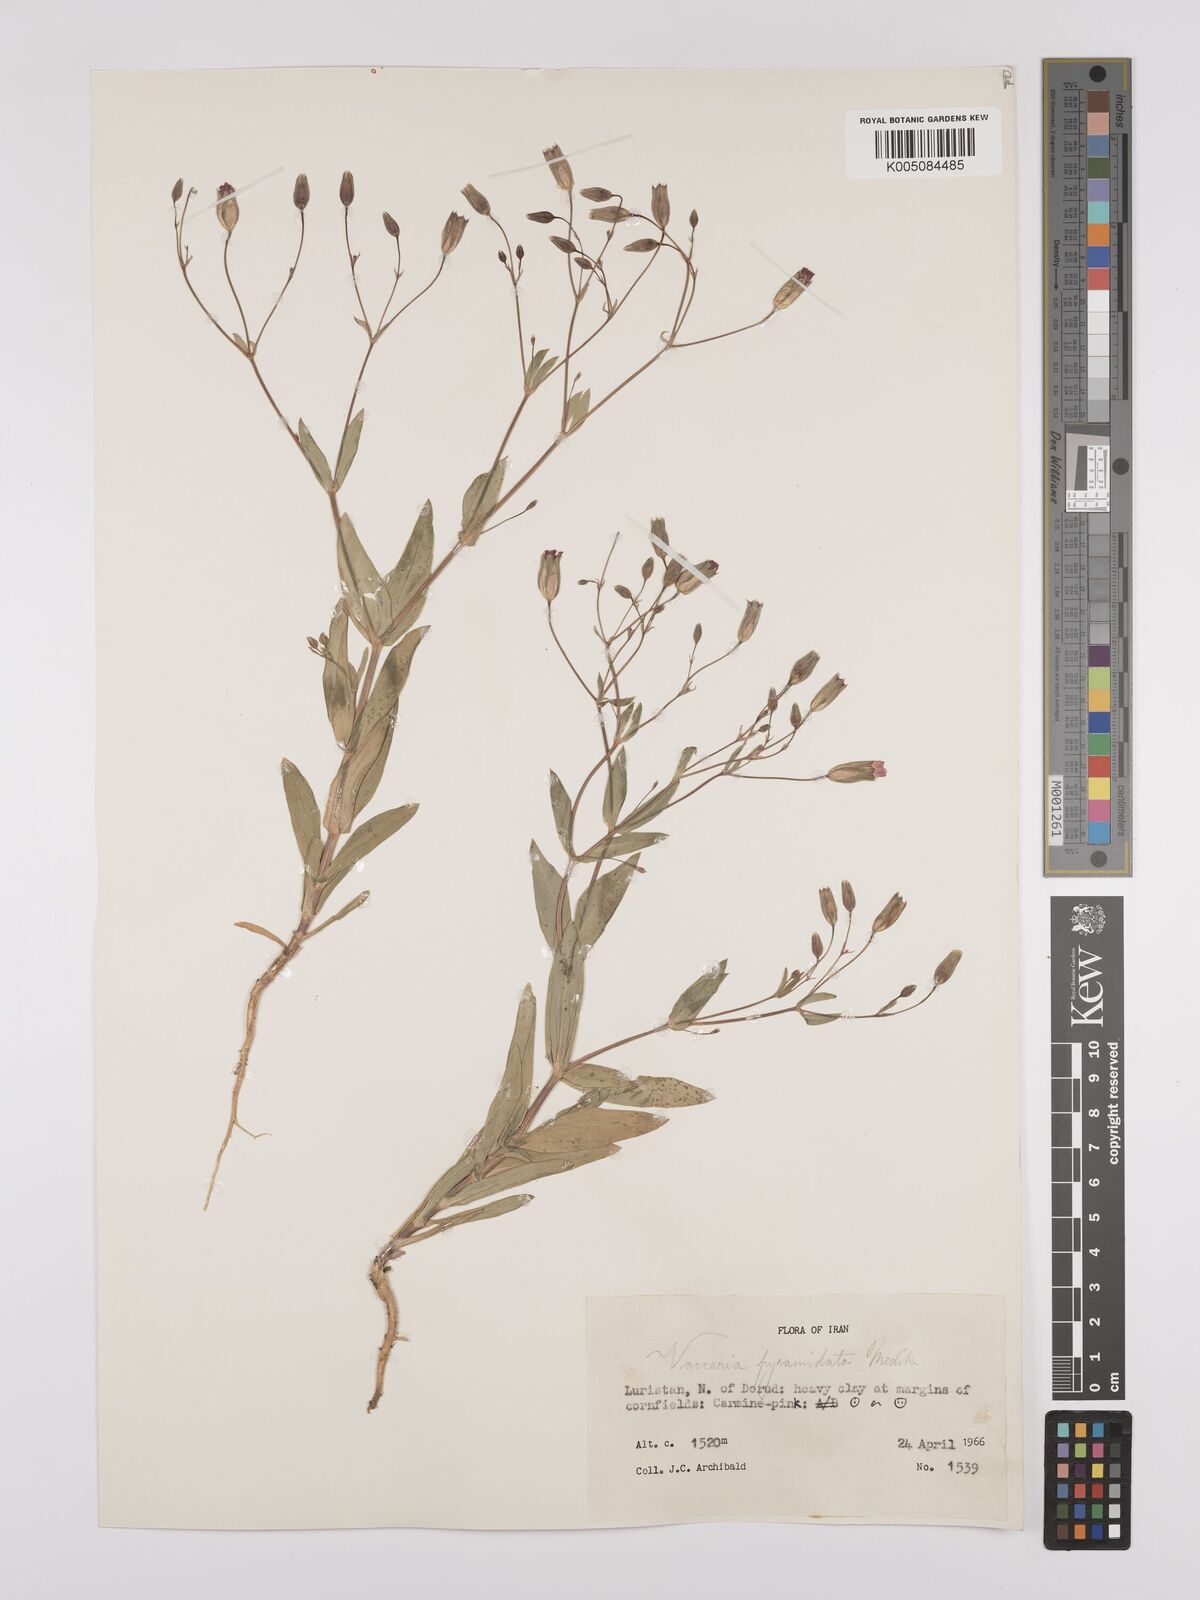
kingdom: Plantae
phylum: Tracheophyta
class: Magnoliopsida
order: Caryophyllales
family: Caryophyllaceae
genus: Gypsophila
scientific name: Gypsophila vaccaria
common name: Cow soapwort
